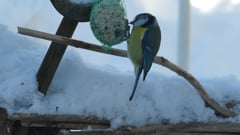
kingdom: Animalia
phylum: Chordata
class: Aves
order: Passeriformes
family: Paridae
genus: Cyanistes
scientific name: Cyanistes caeruleus
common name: Eurasian blue tit
